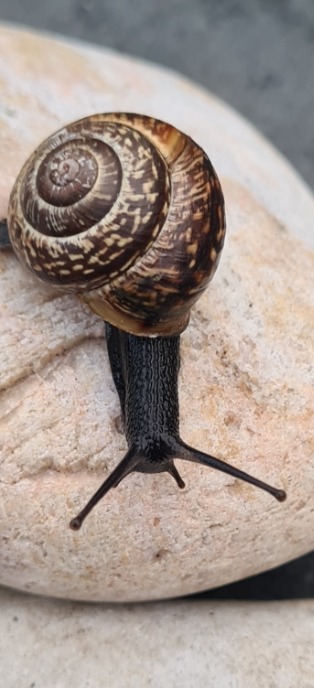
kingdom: Animalia
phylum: Mollusca
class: Gastropoda
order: Stylommatophora
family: Helicidae
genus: Arianta
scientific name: Arianta arbustorum
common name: Kratsnegl
